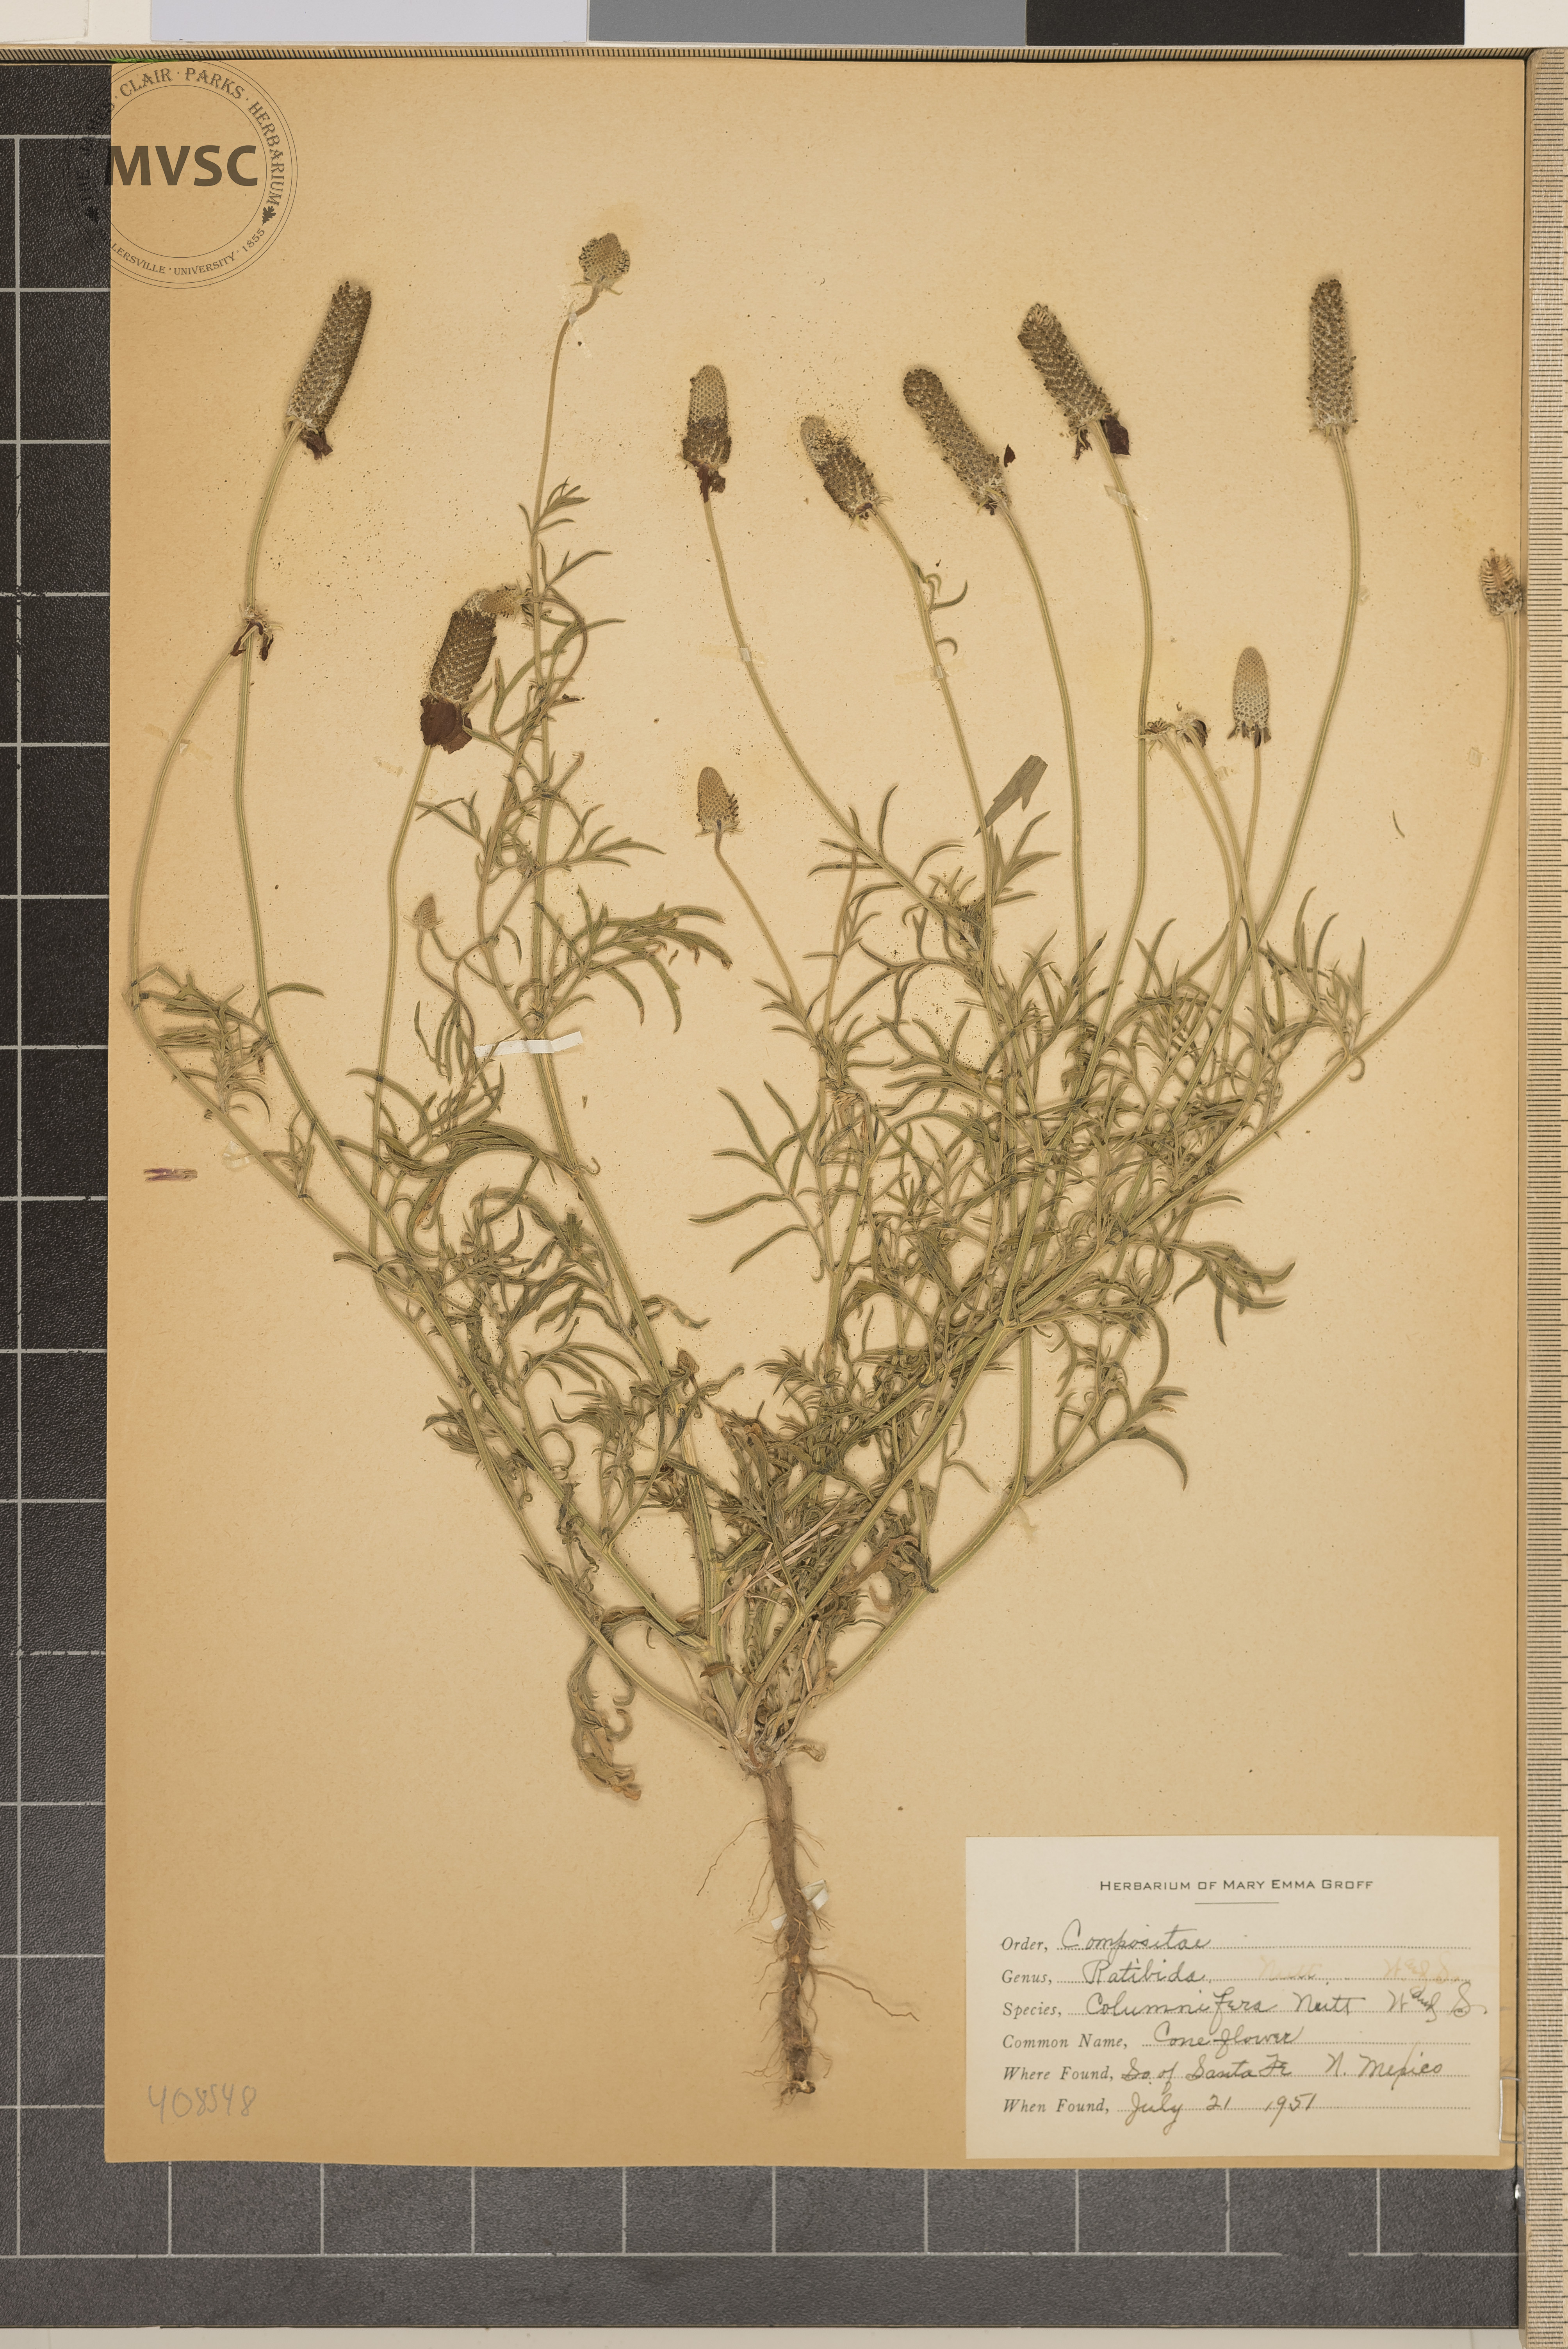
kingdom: Plantae
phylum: Tracheophyta
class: Magnoliopsida
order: Asterales
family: Asteraceae
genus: Ratibida
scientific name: Ratibida columnifera
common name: Coneflower
